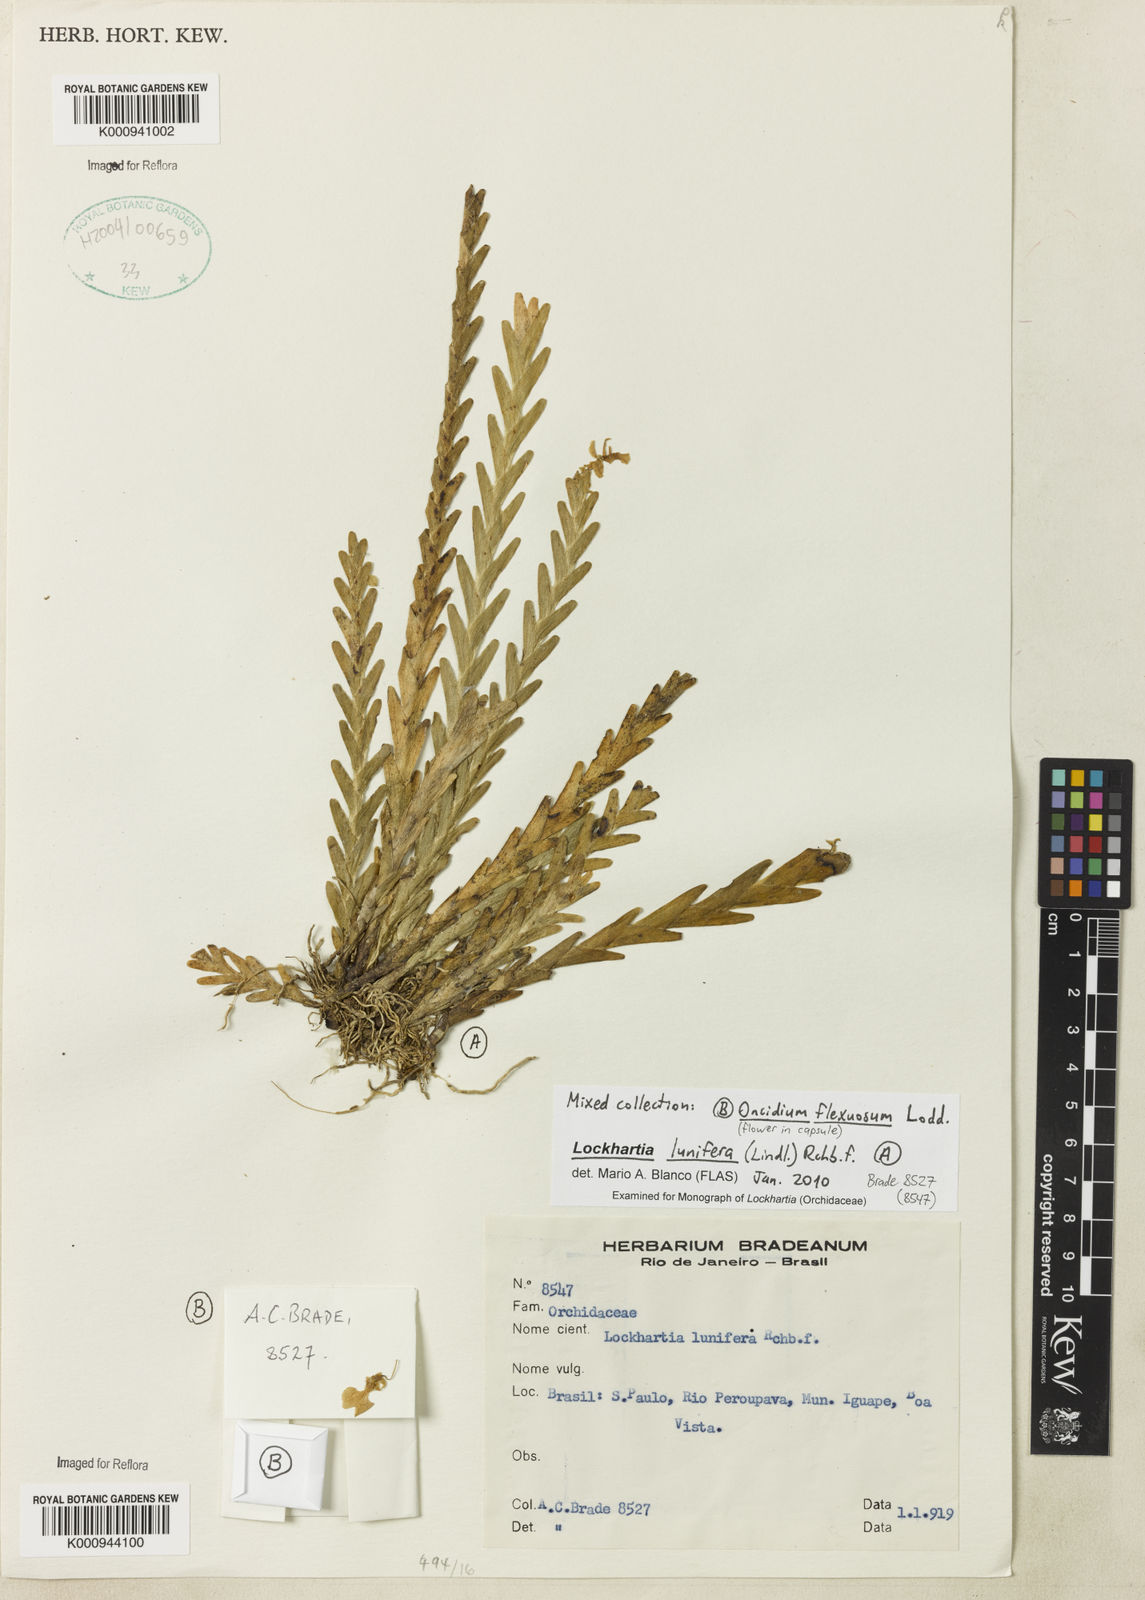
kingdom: Plantae
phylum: Tracheophyta
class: Liliopsida
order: Asparagales
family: Orchidaceae
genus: Lockhartia
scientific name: Lockhartia lunifera
